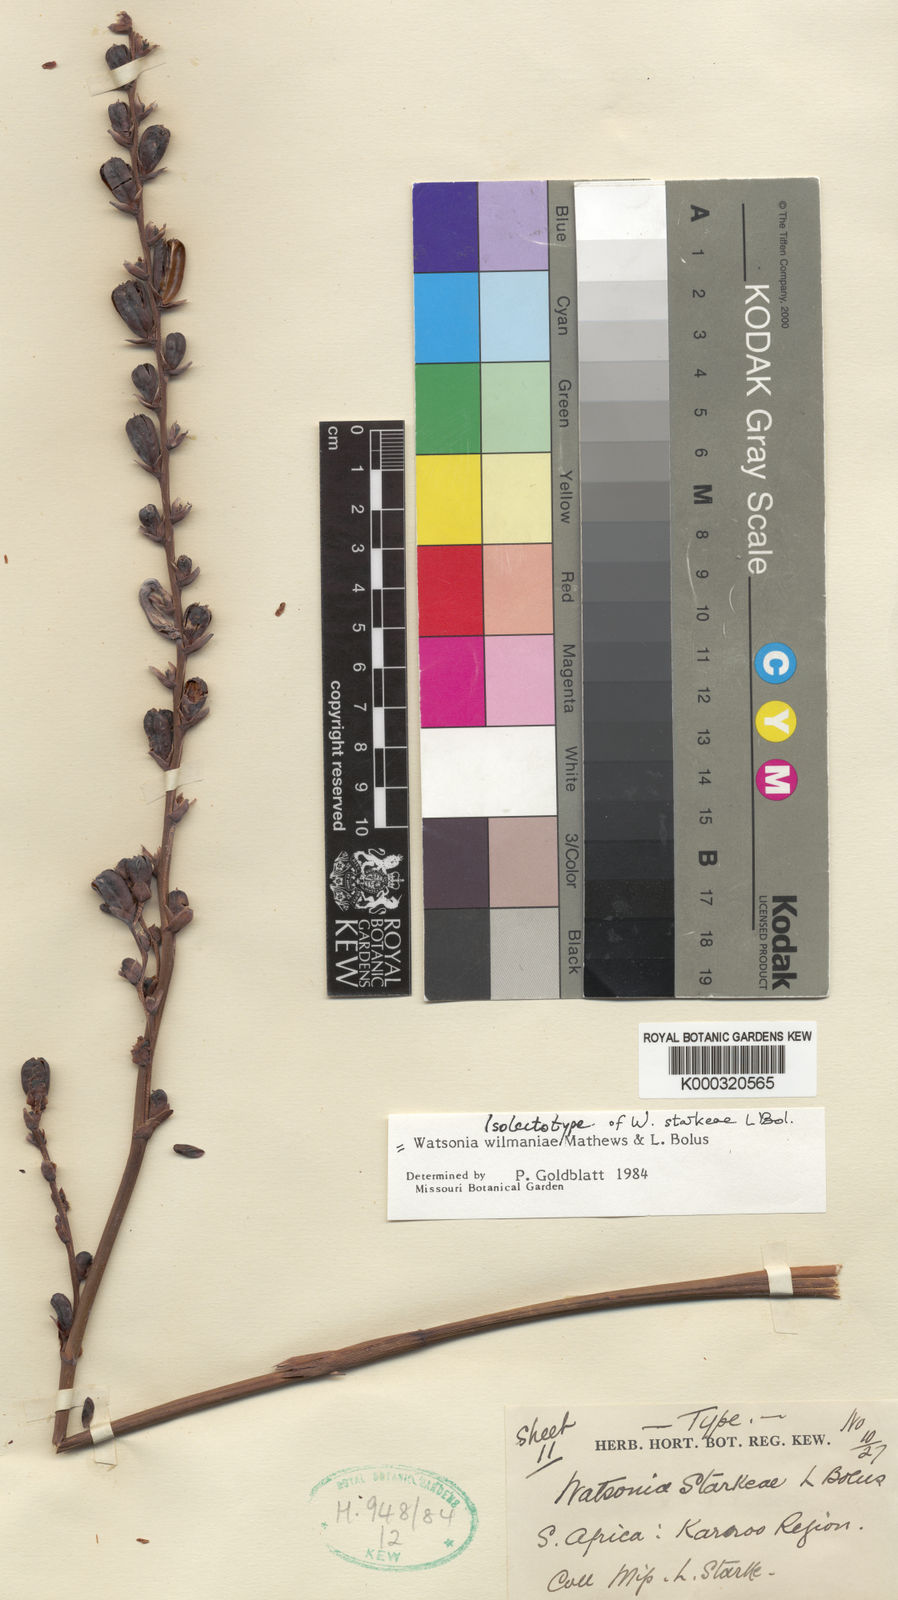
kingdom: Plantae
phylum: Tracheophyta
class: Liliopsida
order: Asparagales
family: Iridaceae
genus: Watsonia
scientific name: Watsonia wilmaniae
